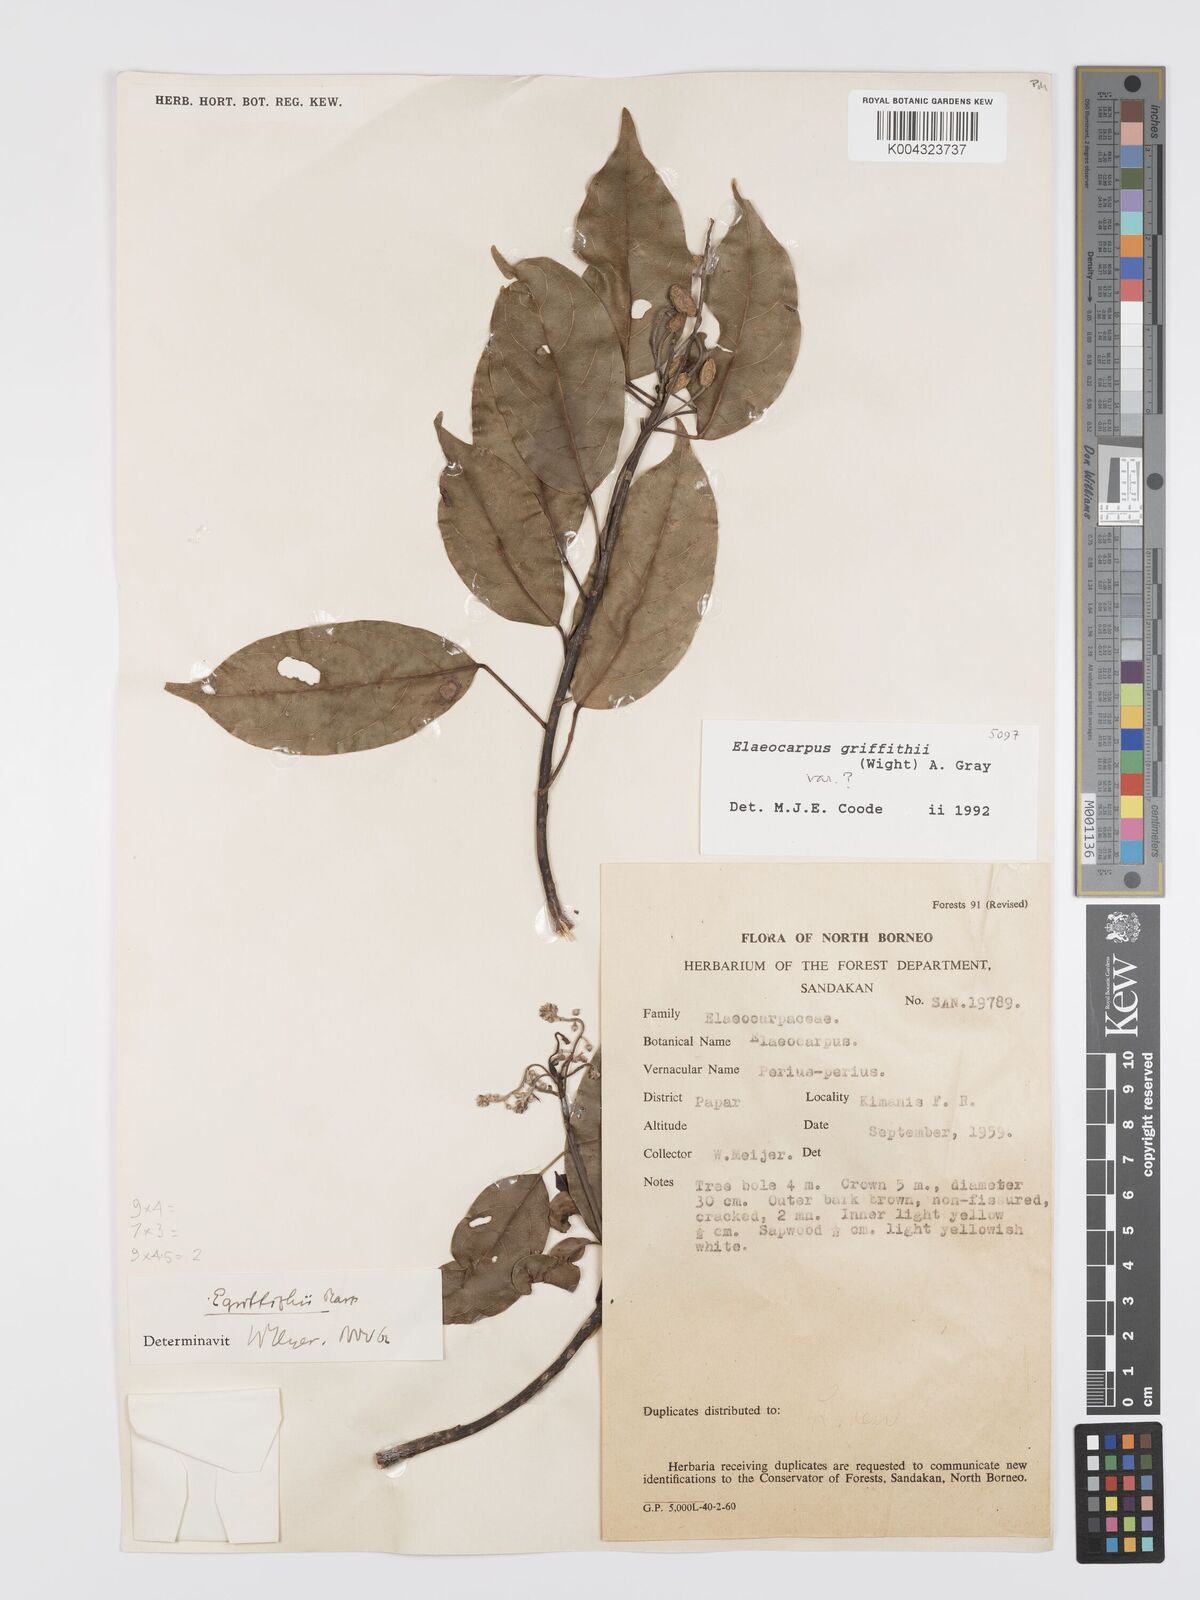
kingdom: Plantae
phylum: Tracheophyta
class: Magnoliopsida
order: Oxalidales
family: Elaeocarpaceae
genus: Elaeocarpus
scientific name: Elaeocarpus griffithii
